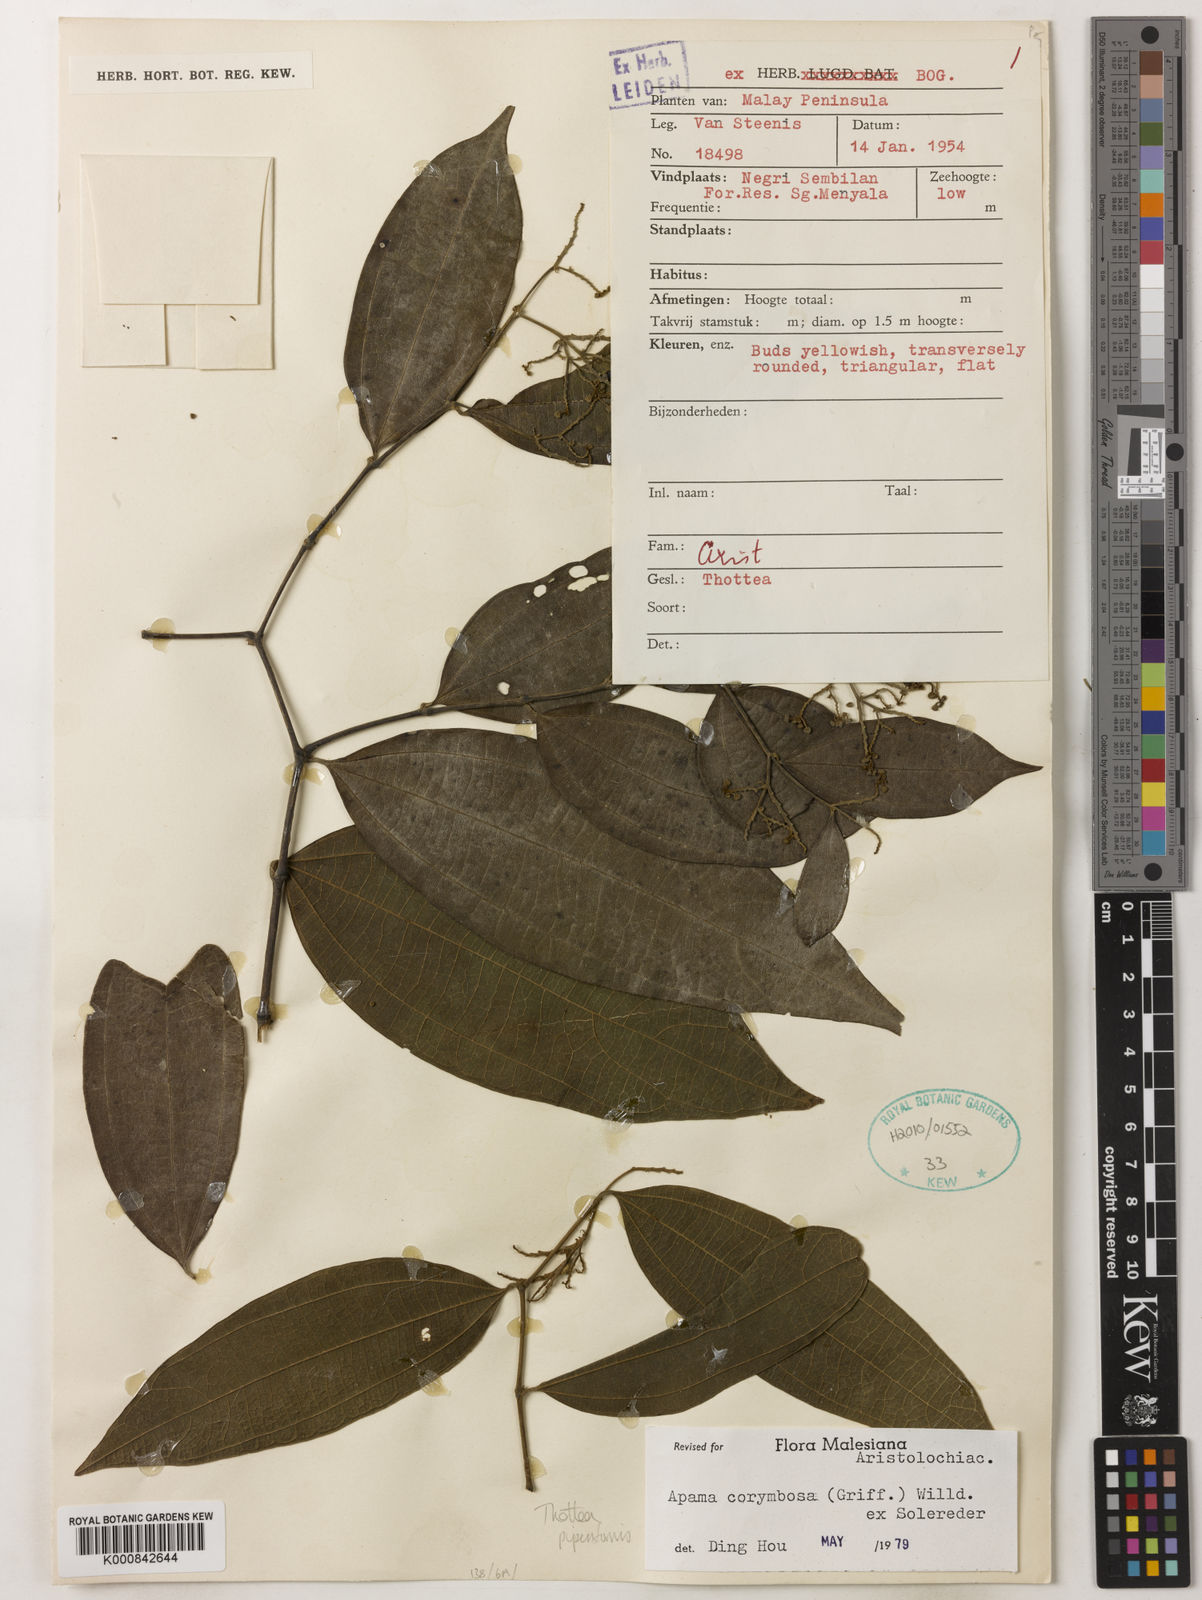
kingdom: Plantae
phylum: Tracheophyta
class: Magnoliopsida
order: Piperales
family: Aristolochiaceae
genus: Thottea
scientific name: Thottea piperiformis
